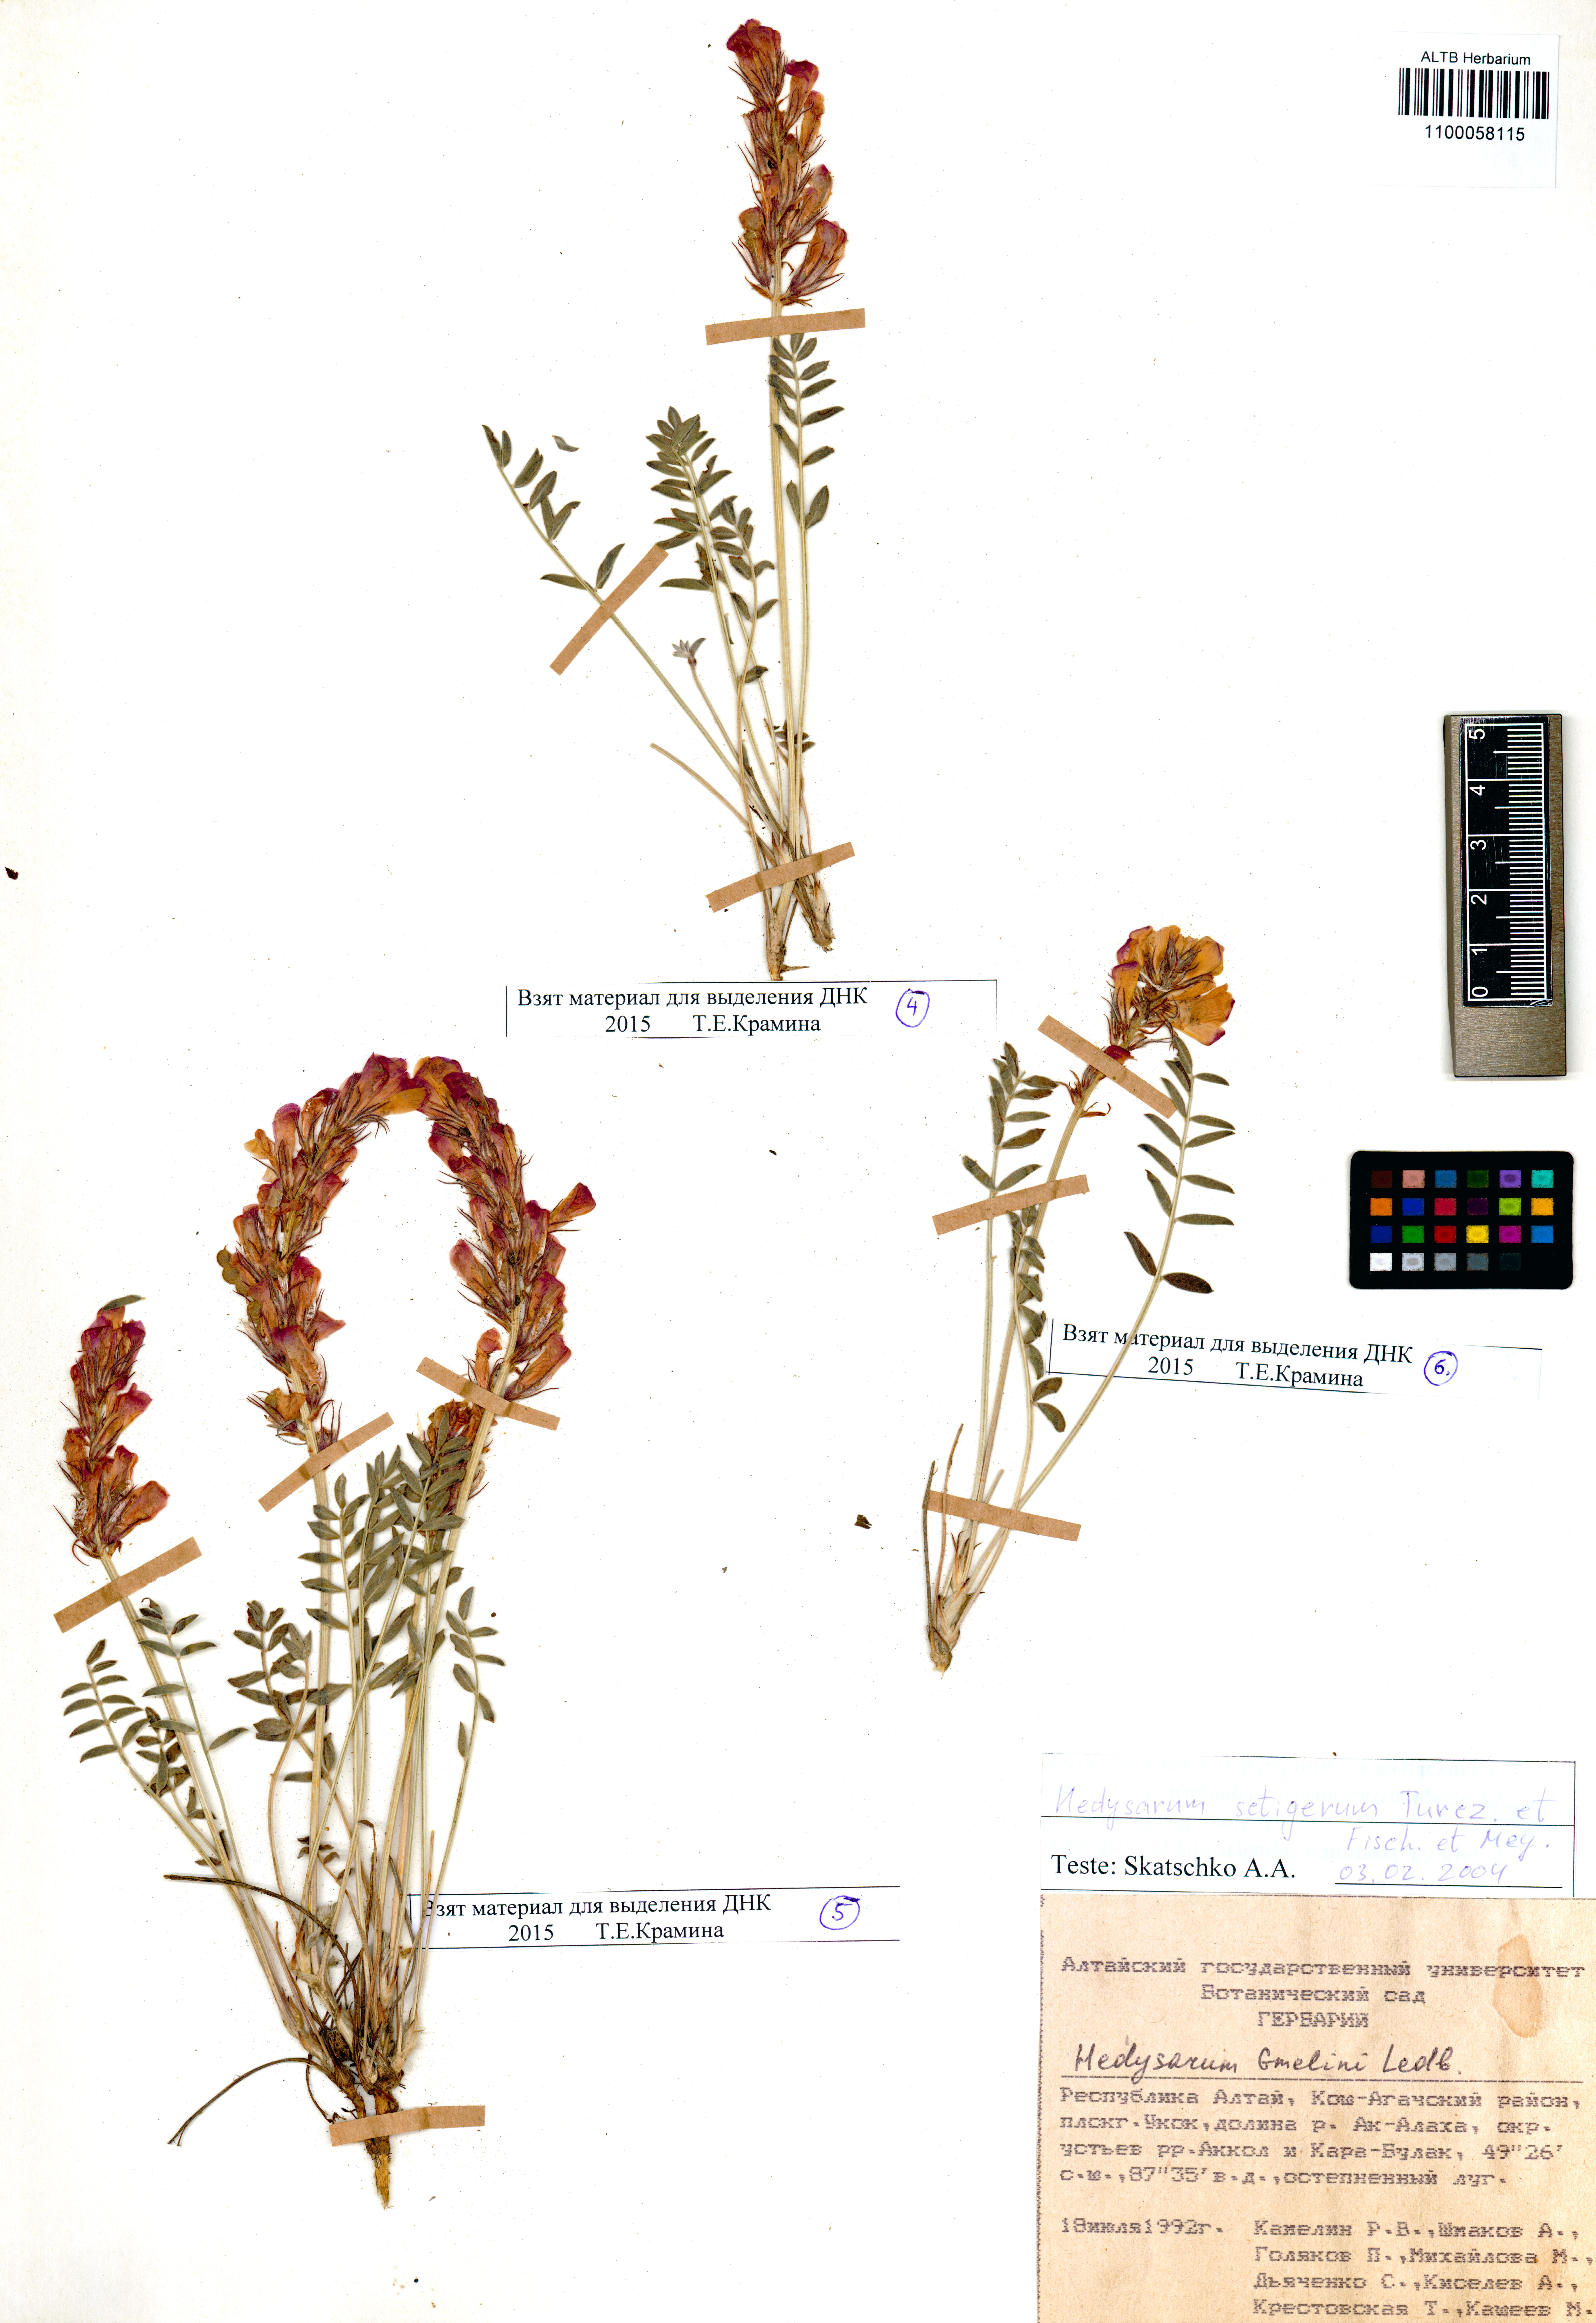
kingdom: Plantae
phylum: Tracheophyta
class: Magnoliopsida
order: Fabales
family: Fabaceae
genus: Hedysarum
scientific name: Hedysarum setigerum
